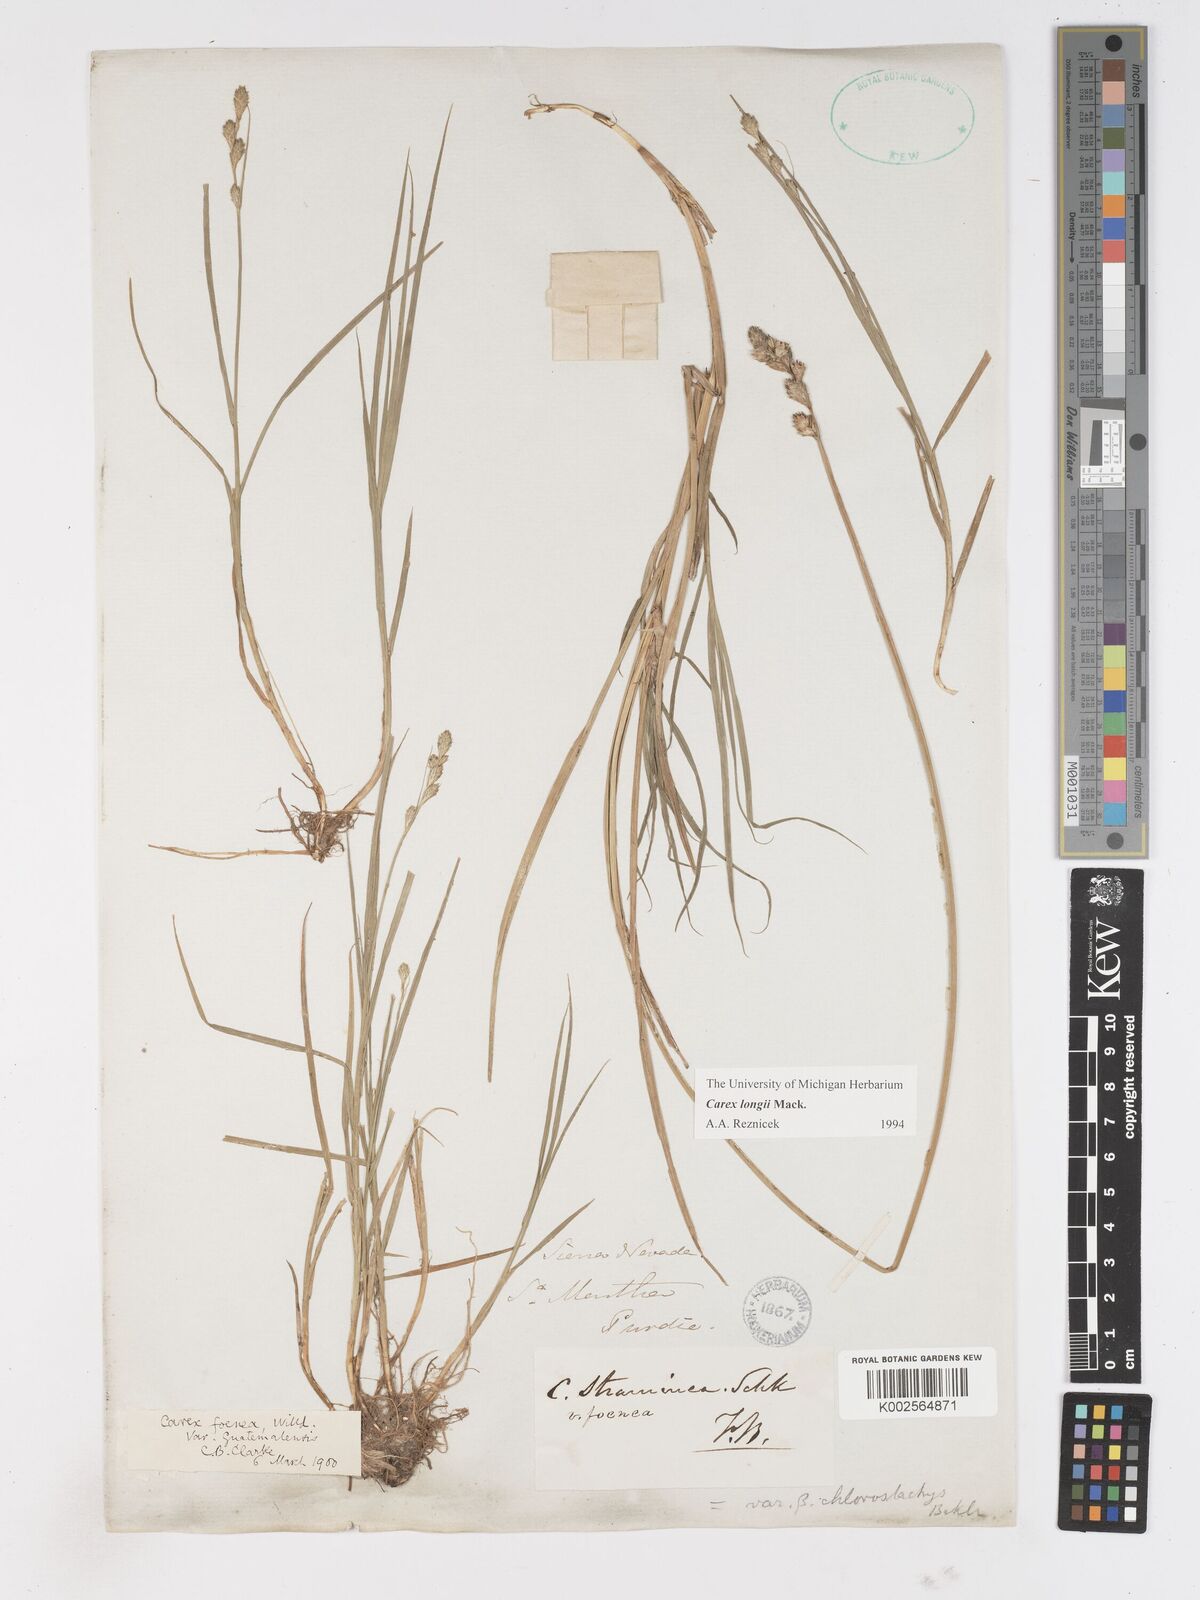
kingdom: Plantae
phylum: Tracheophyta
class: Liliopsida
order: Poales
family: Cyperaceae
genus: Carex
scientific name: Carex longii
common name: Long's sedge
